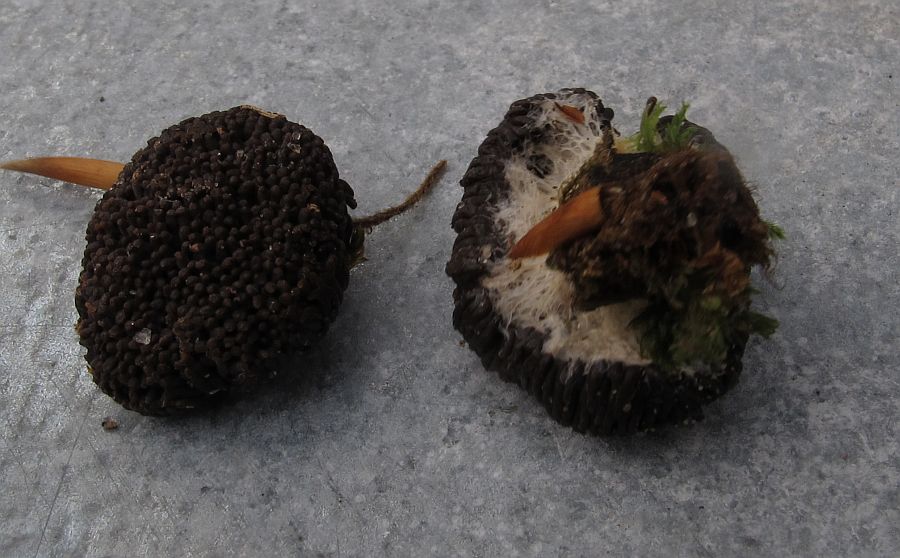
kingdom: Protozoa
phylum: Mycetozoa
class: Myxomycetes
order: Cribrariales
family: Tubiferaceae
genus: Tubifera
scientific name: Tubifera ferruginosa
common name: kanel-støvrør
